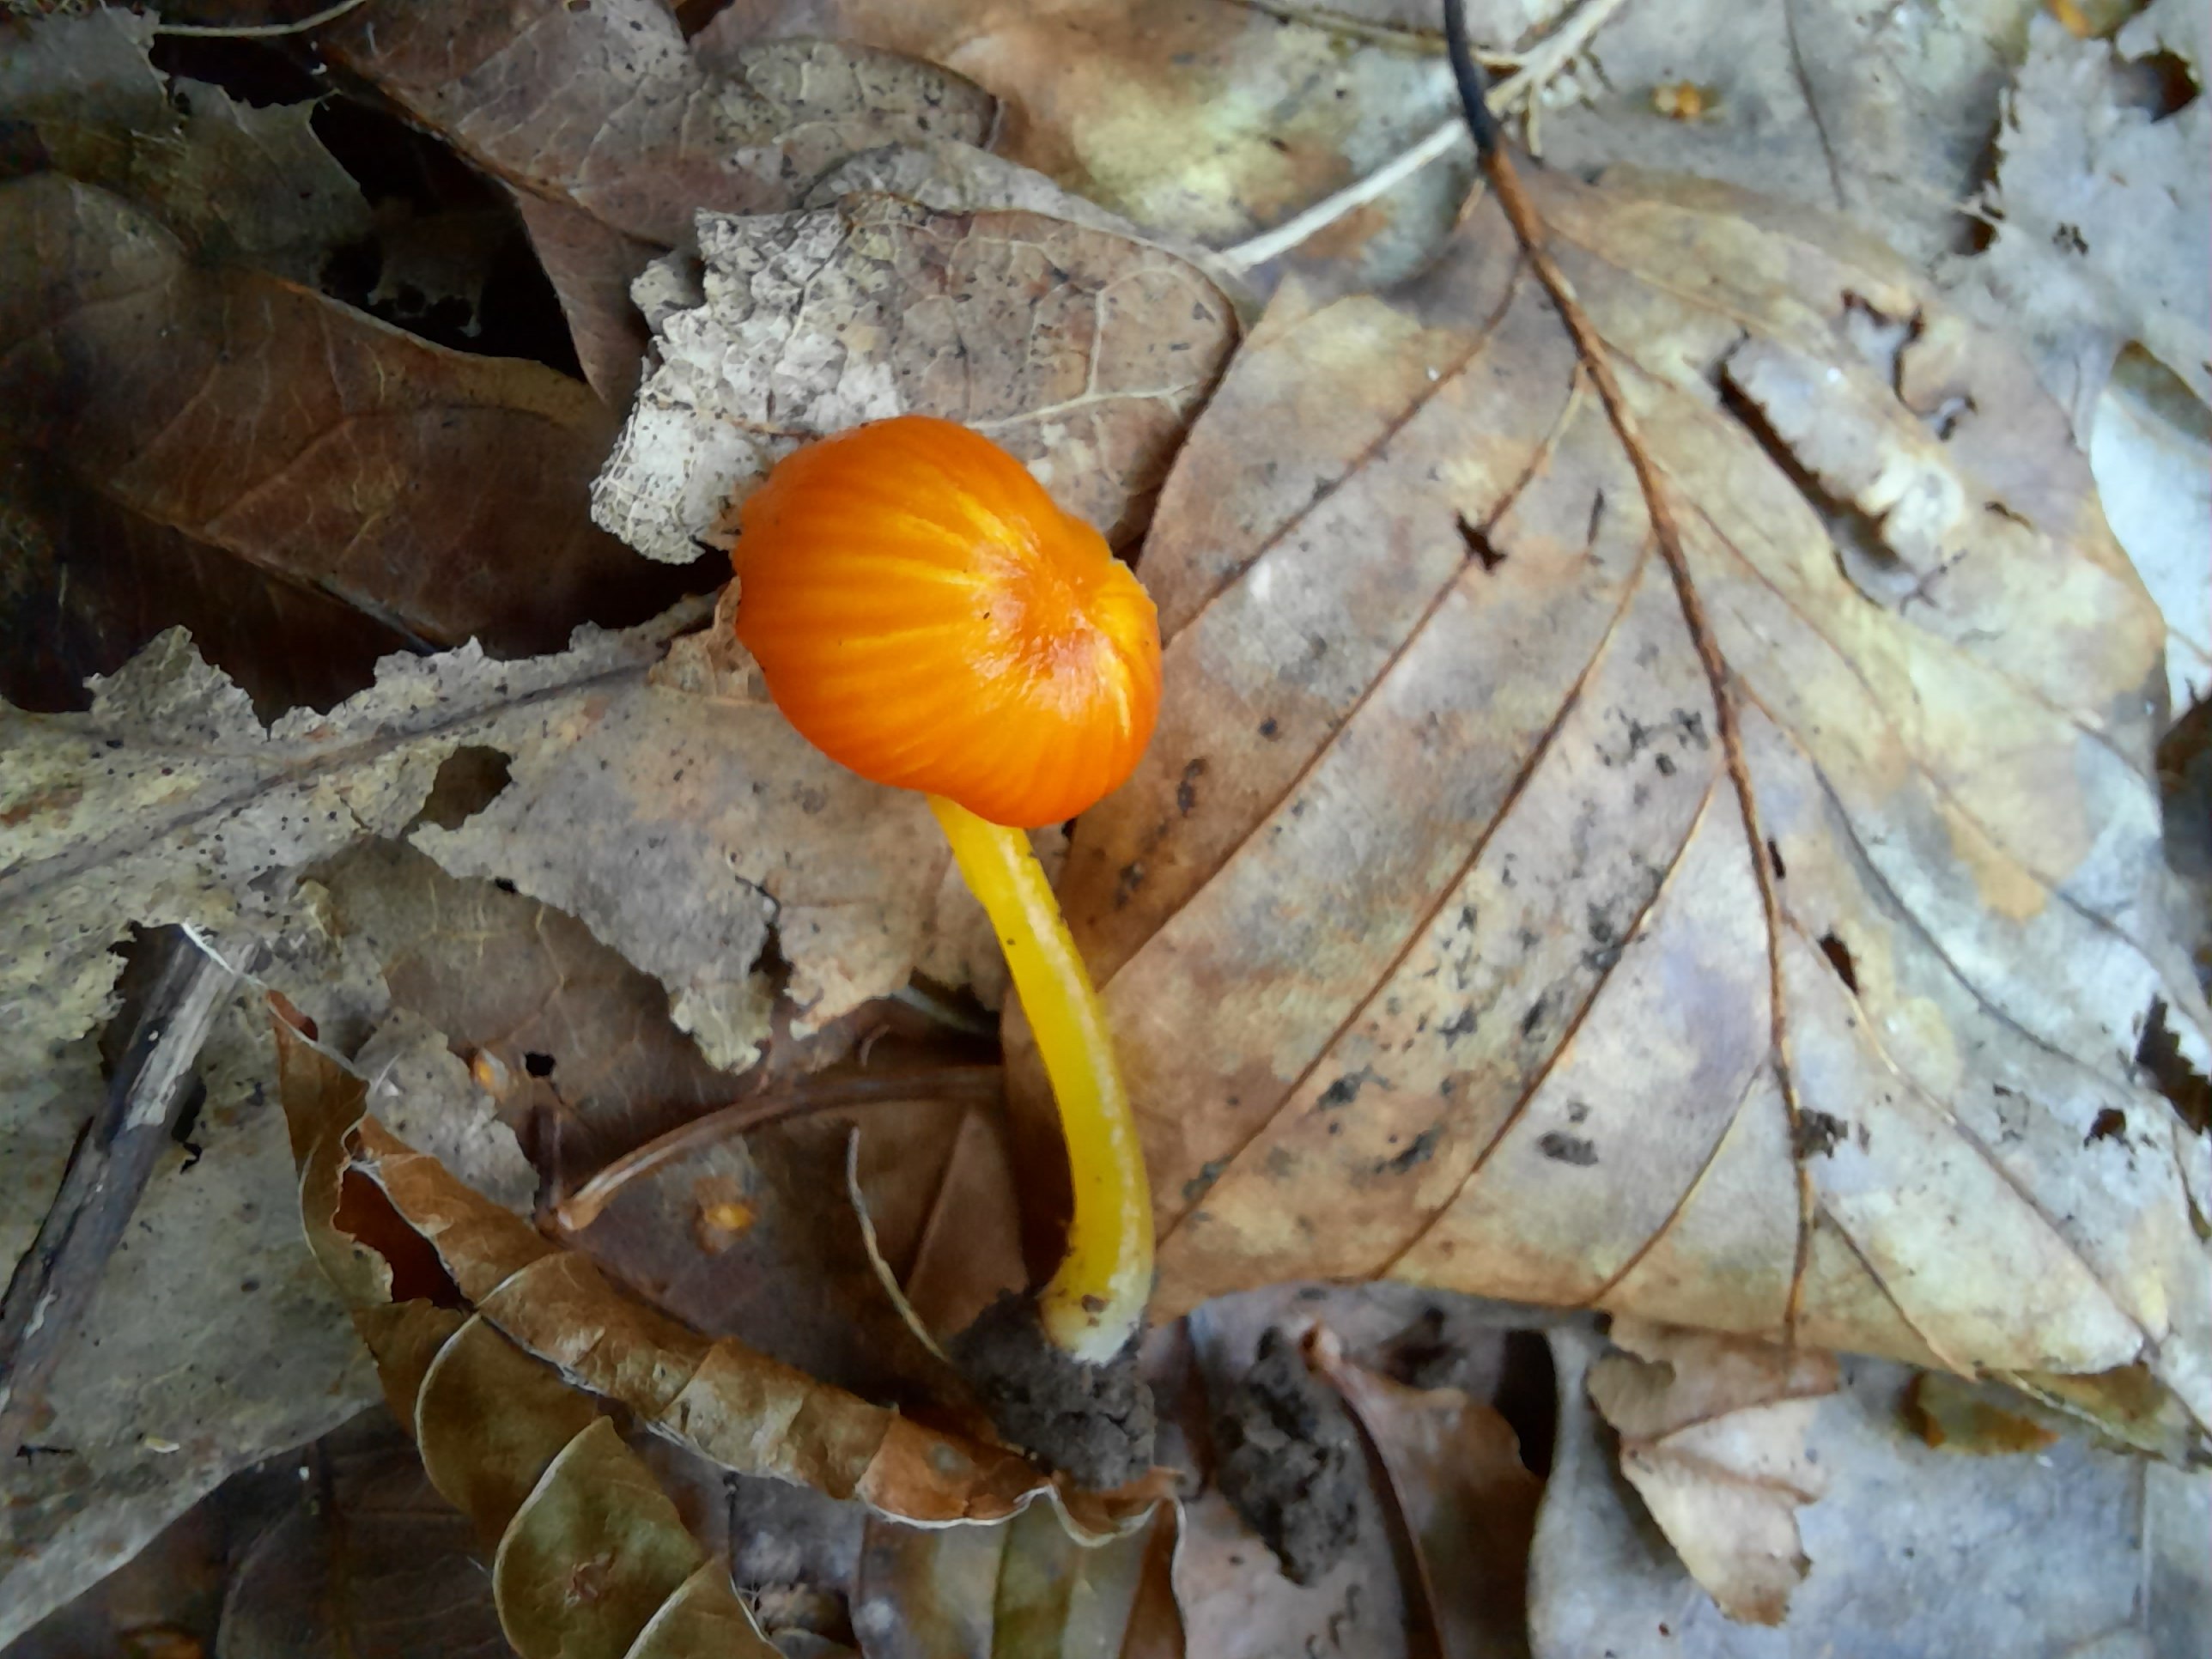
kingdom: Fungi
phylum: Basidiomycota
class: Agaricomycetes
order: Agaricales
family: Hygrophoraceae
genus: Hygrocybe
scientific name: Hygrocybe glutinipes
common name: slimstokket vokshat
